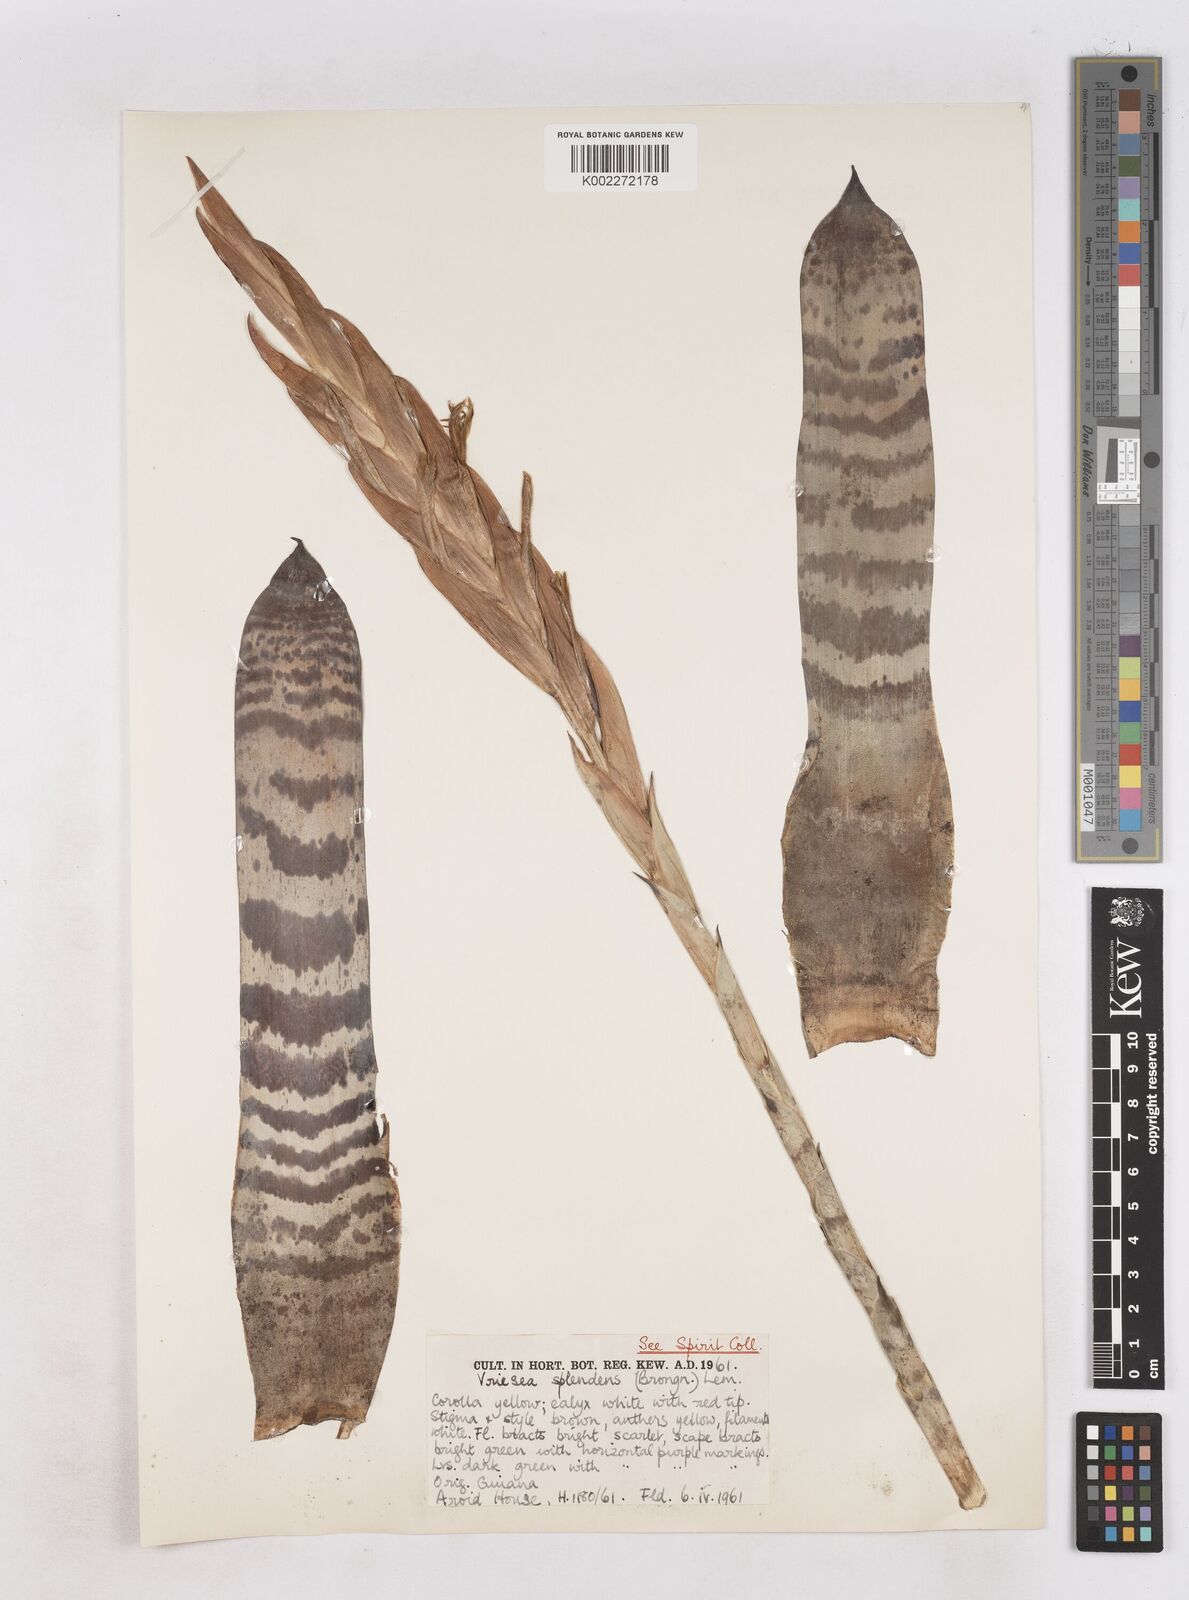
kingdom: Plantae
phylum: Tracheophyta
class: Liliopsida
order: Poales
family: Bromeliaceae
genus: Lutheria
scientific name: Lutheria splendens
